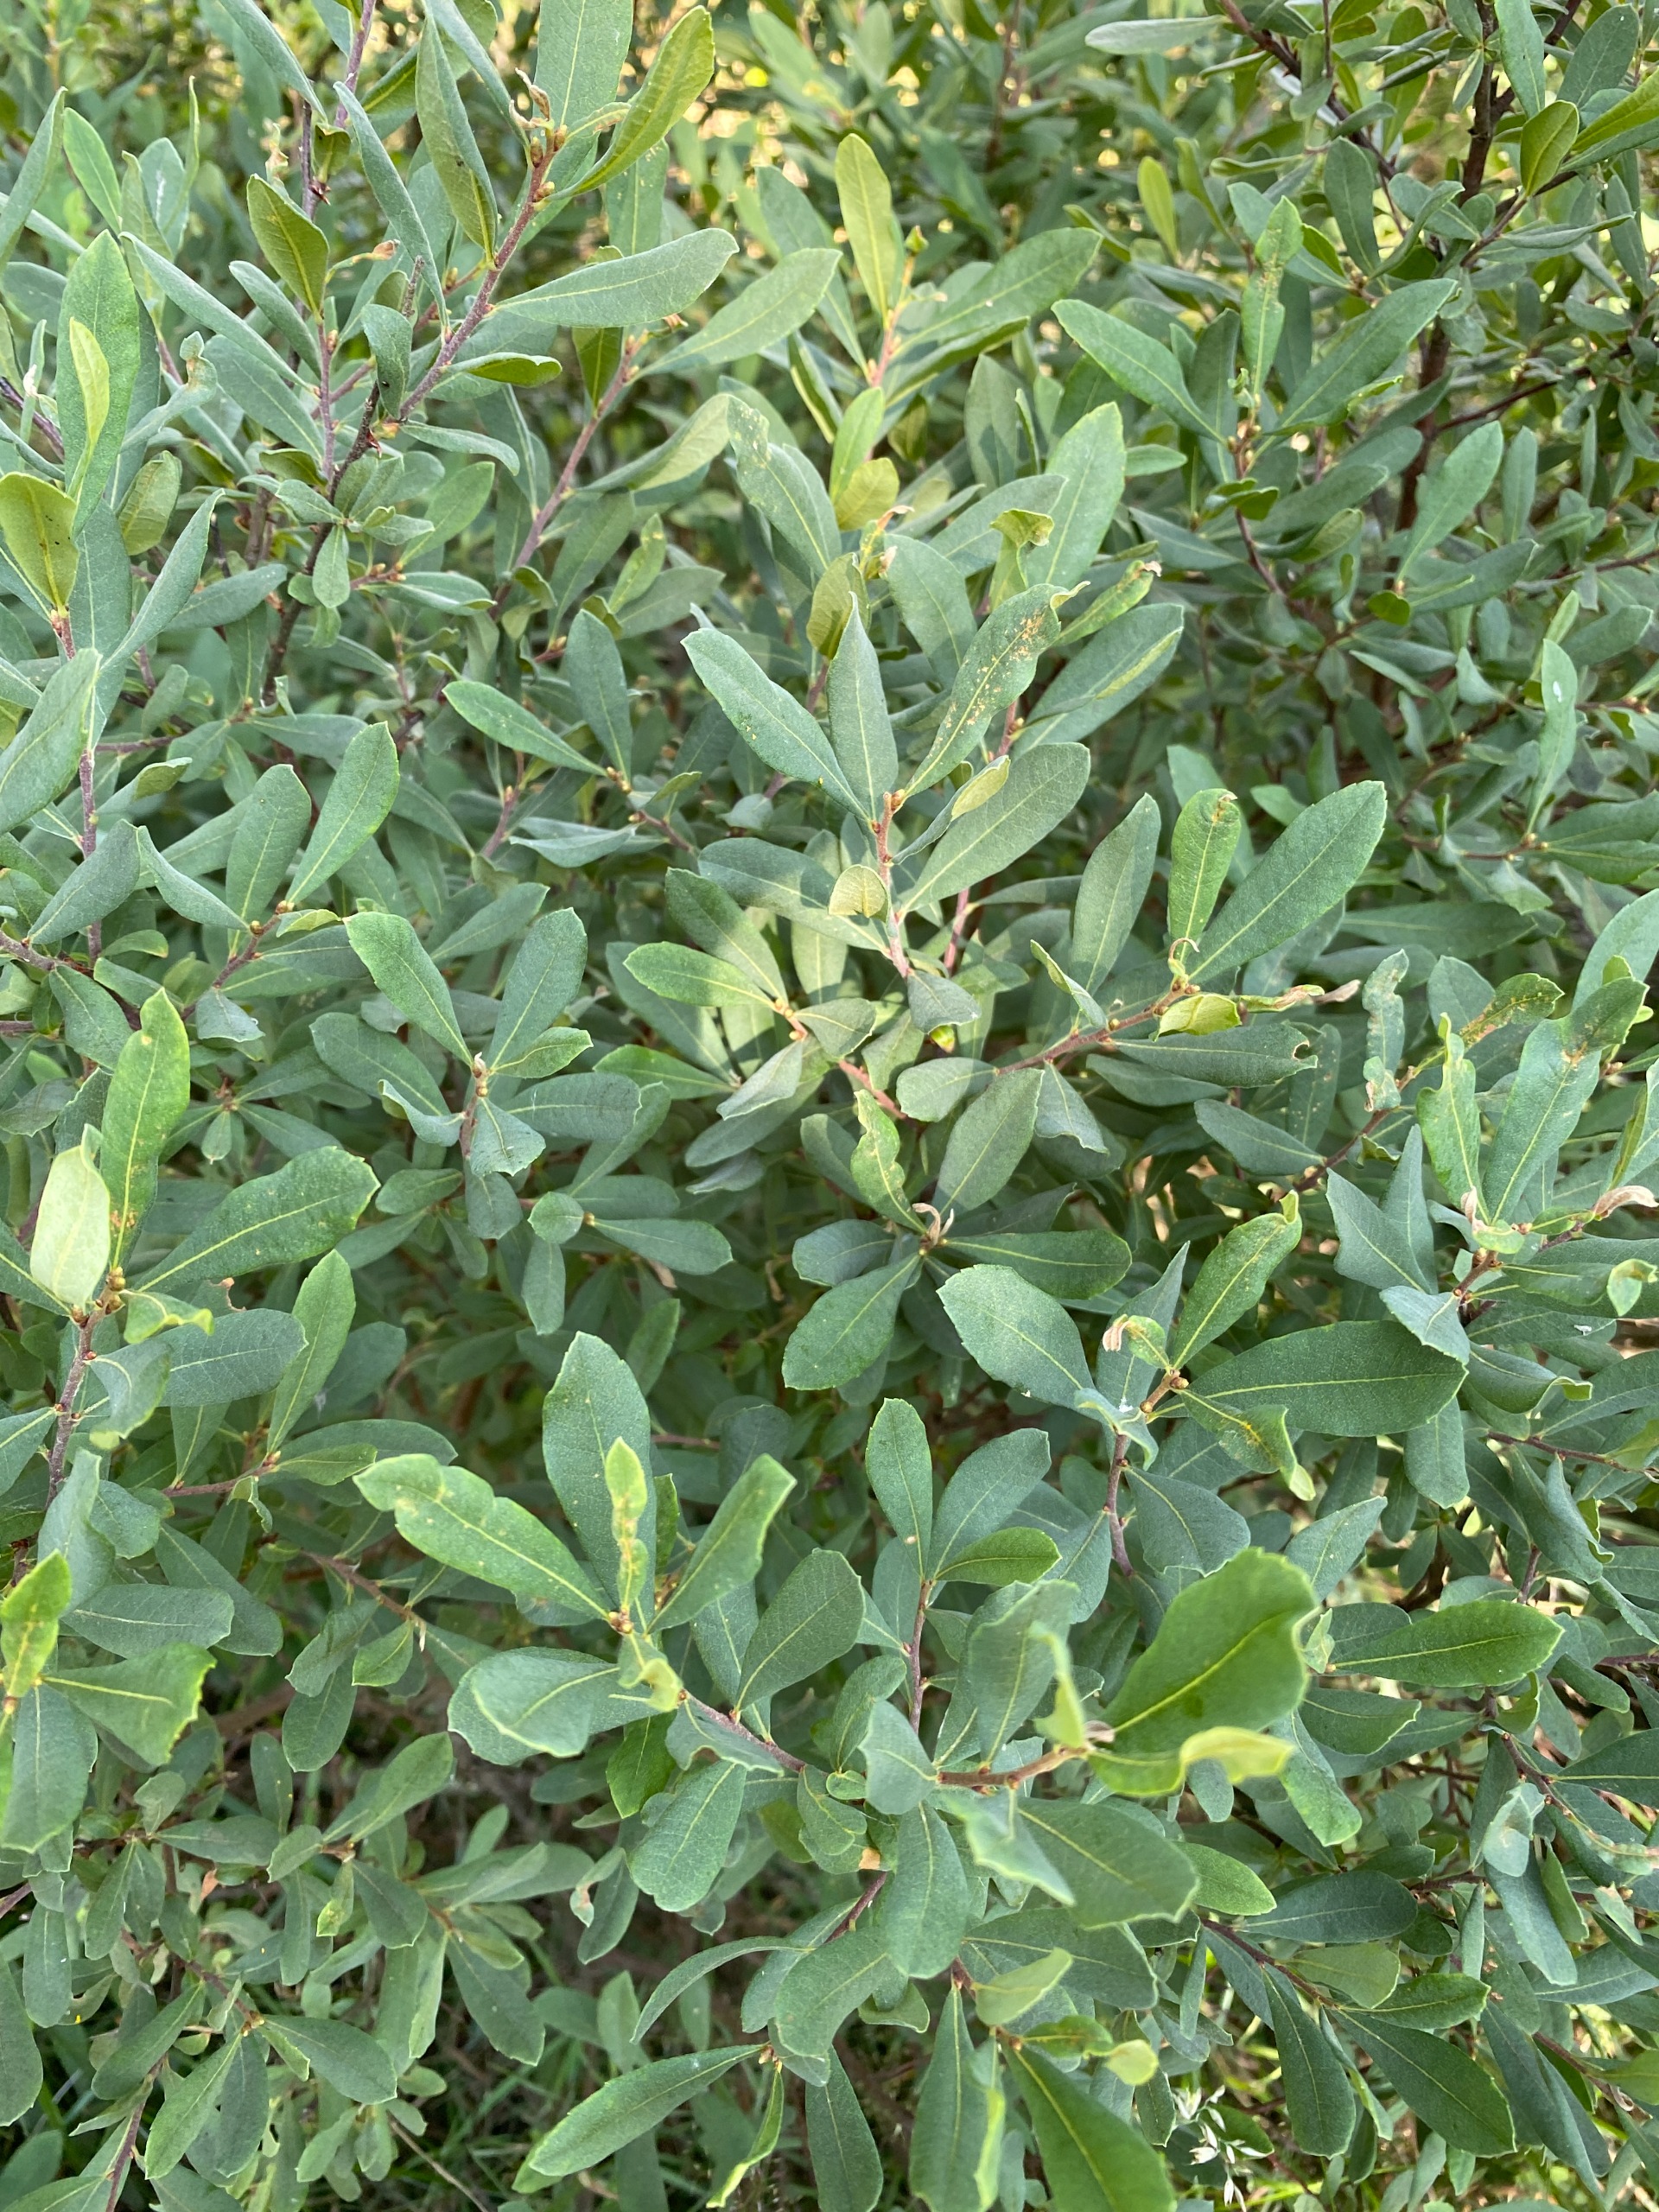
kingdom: Plantae
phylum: Tracheophyta
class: Magnoliopsida
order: Fagales
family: Myricaceae
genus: Myrica
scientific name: Myrica gale
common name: Pors
